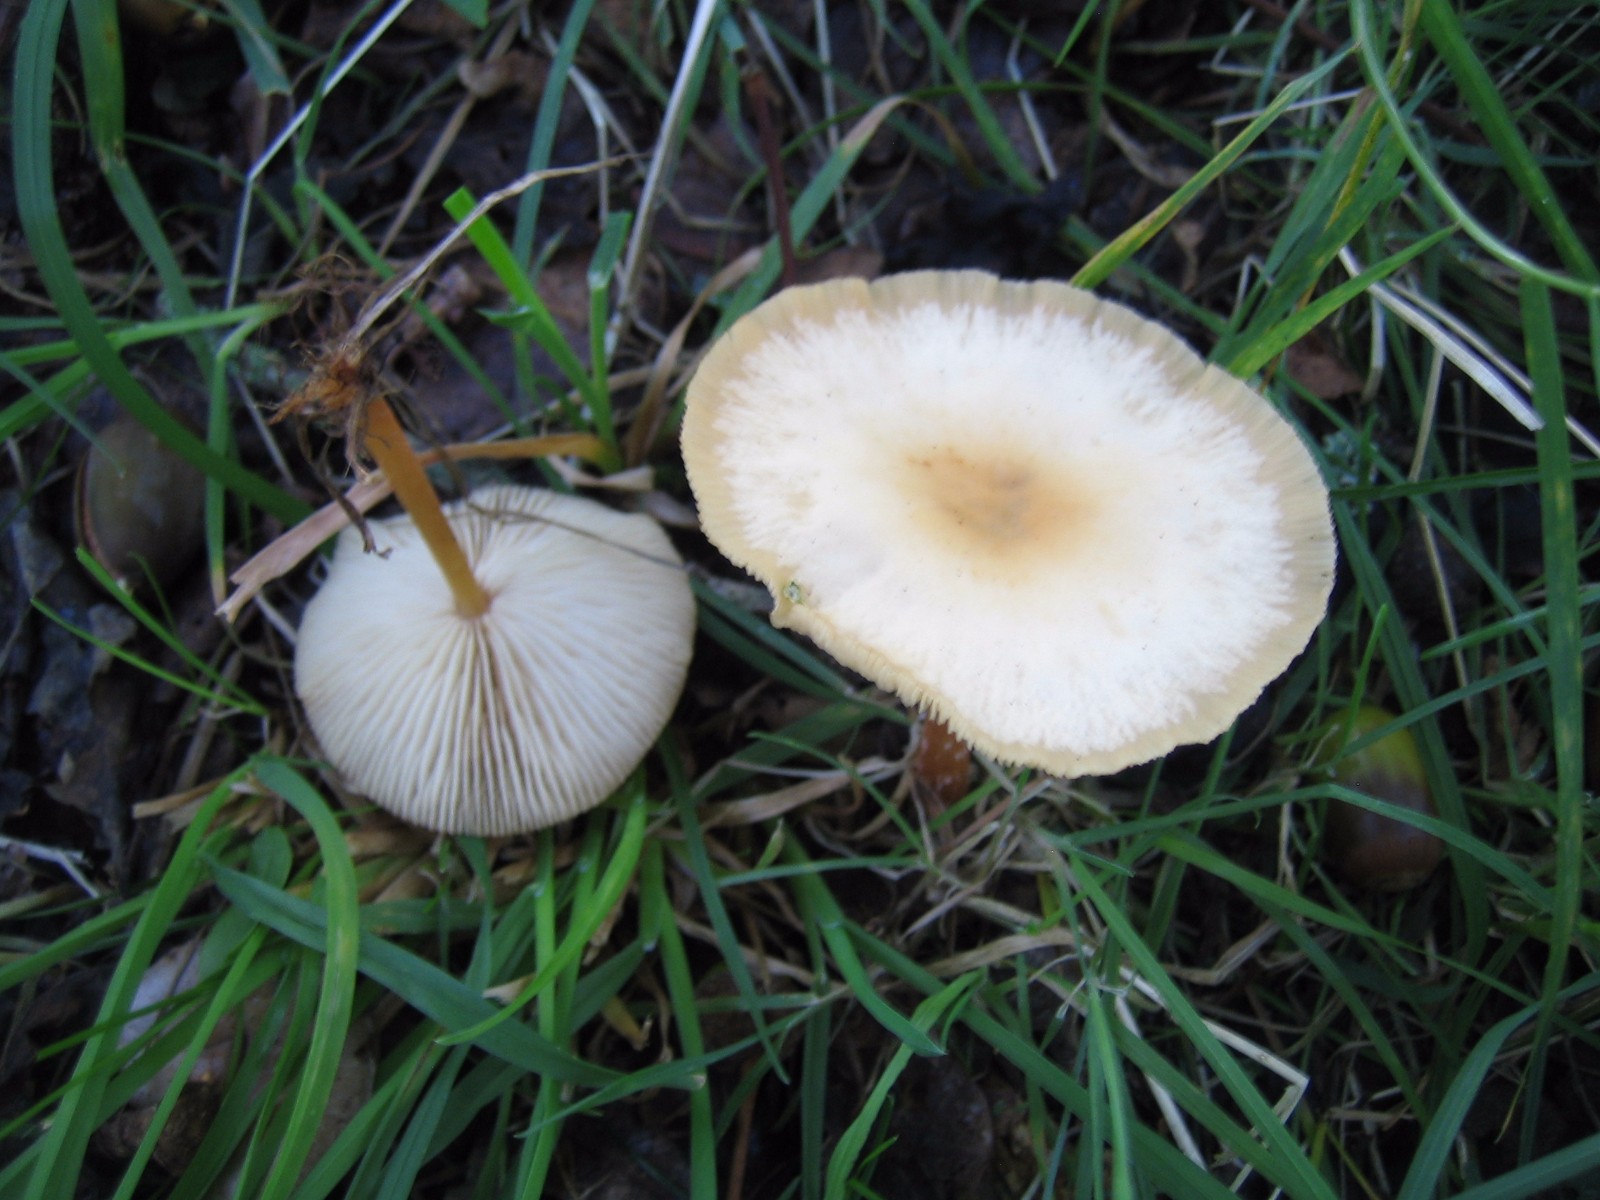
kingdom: Fungi
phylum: Basidiomycota
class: Agaricomycetes
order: Agaricales
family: Omphalotaceae
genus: Gymnopus
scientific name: Gymnopus dryophilus
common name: løv-fladhat
